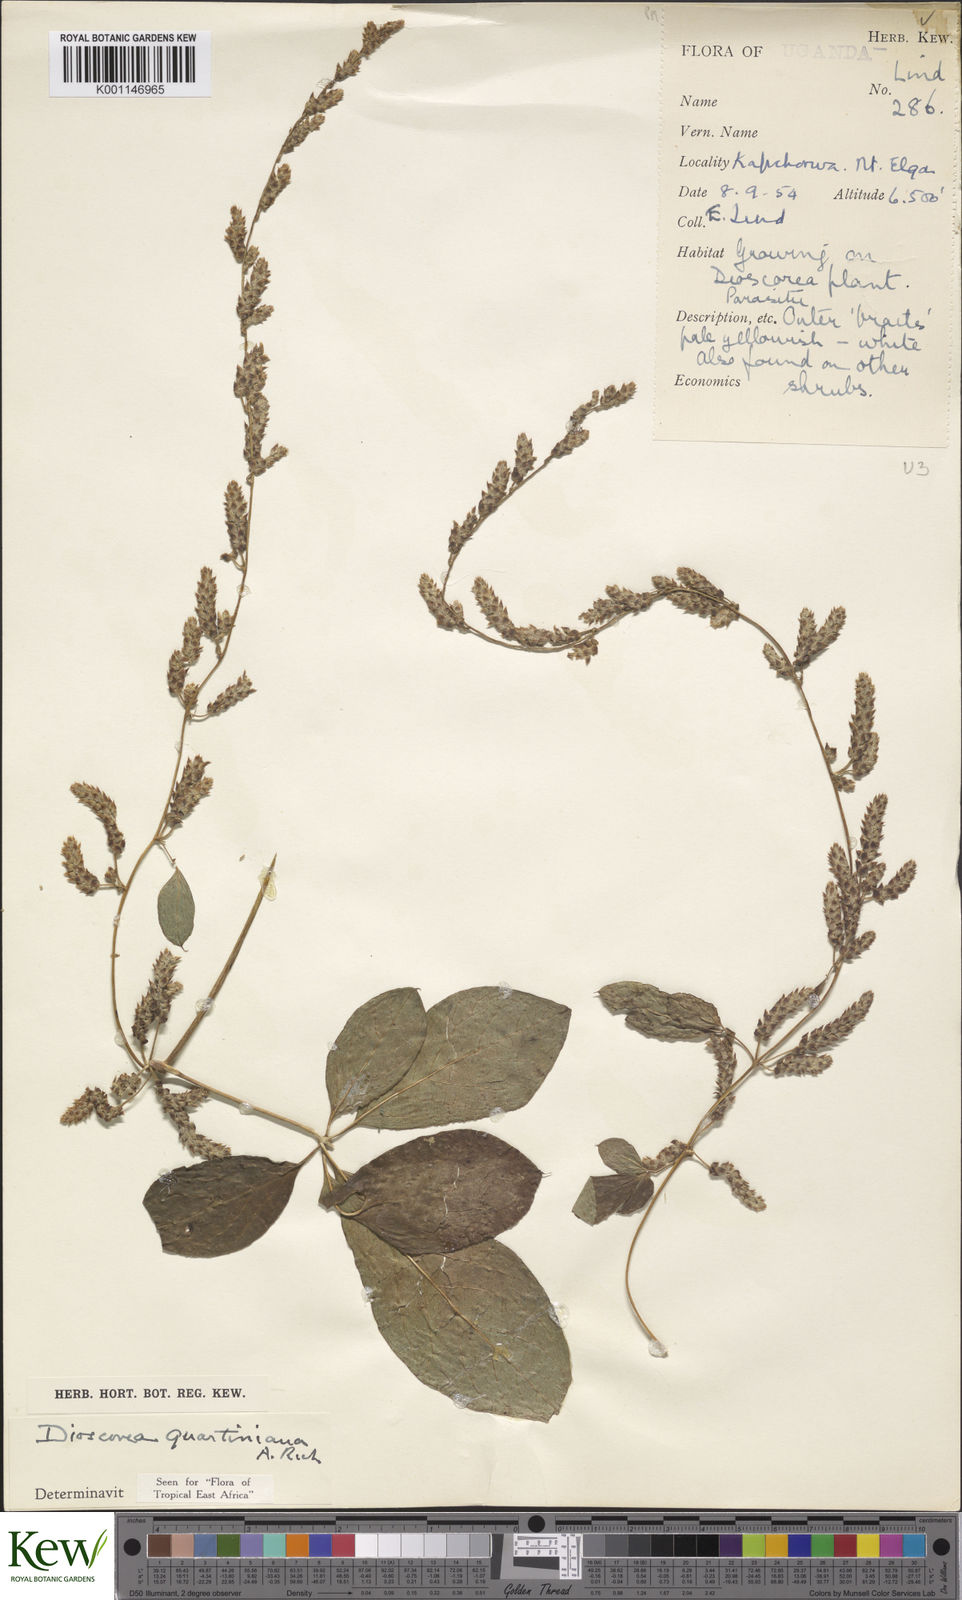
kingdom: Plantae
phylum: Tracheophyta
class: Liliopsida
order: Dioscoreales
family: Dioscoreaceae
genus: Dioscorea
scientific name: Dioscorea quartiniana
